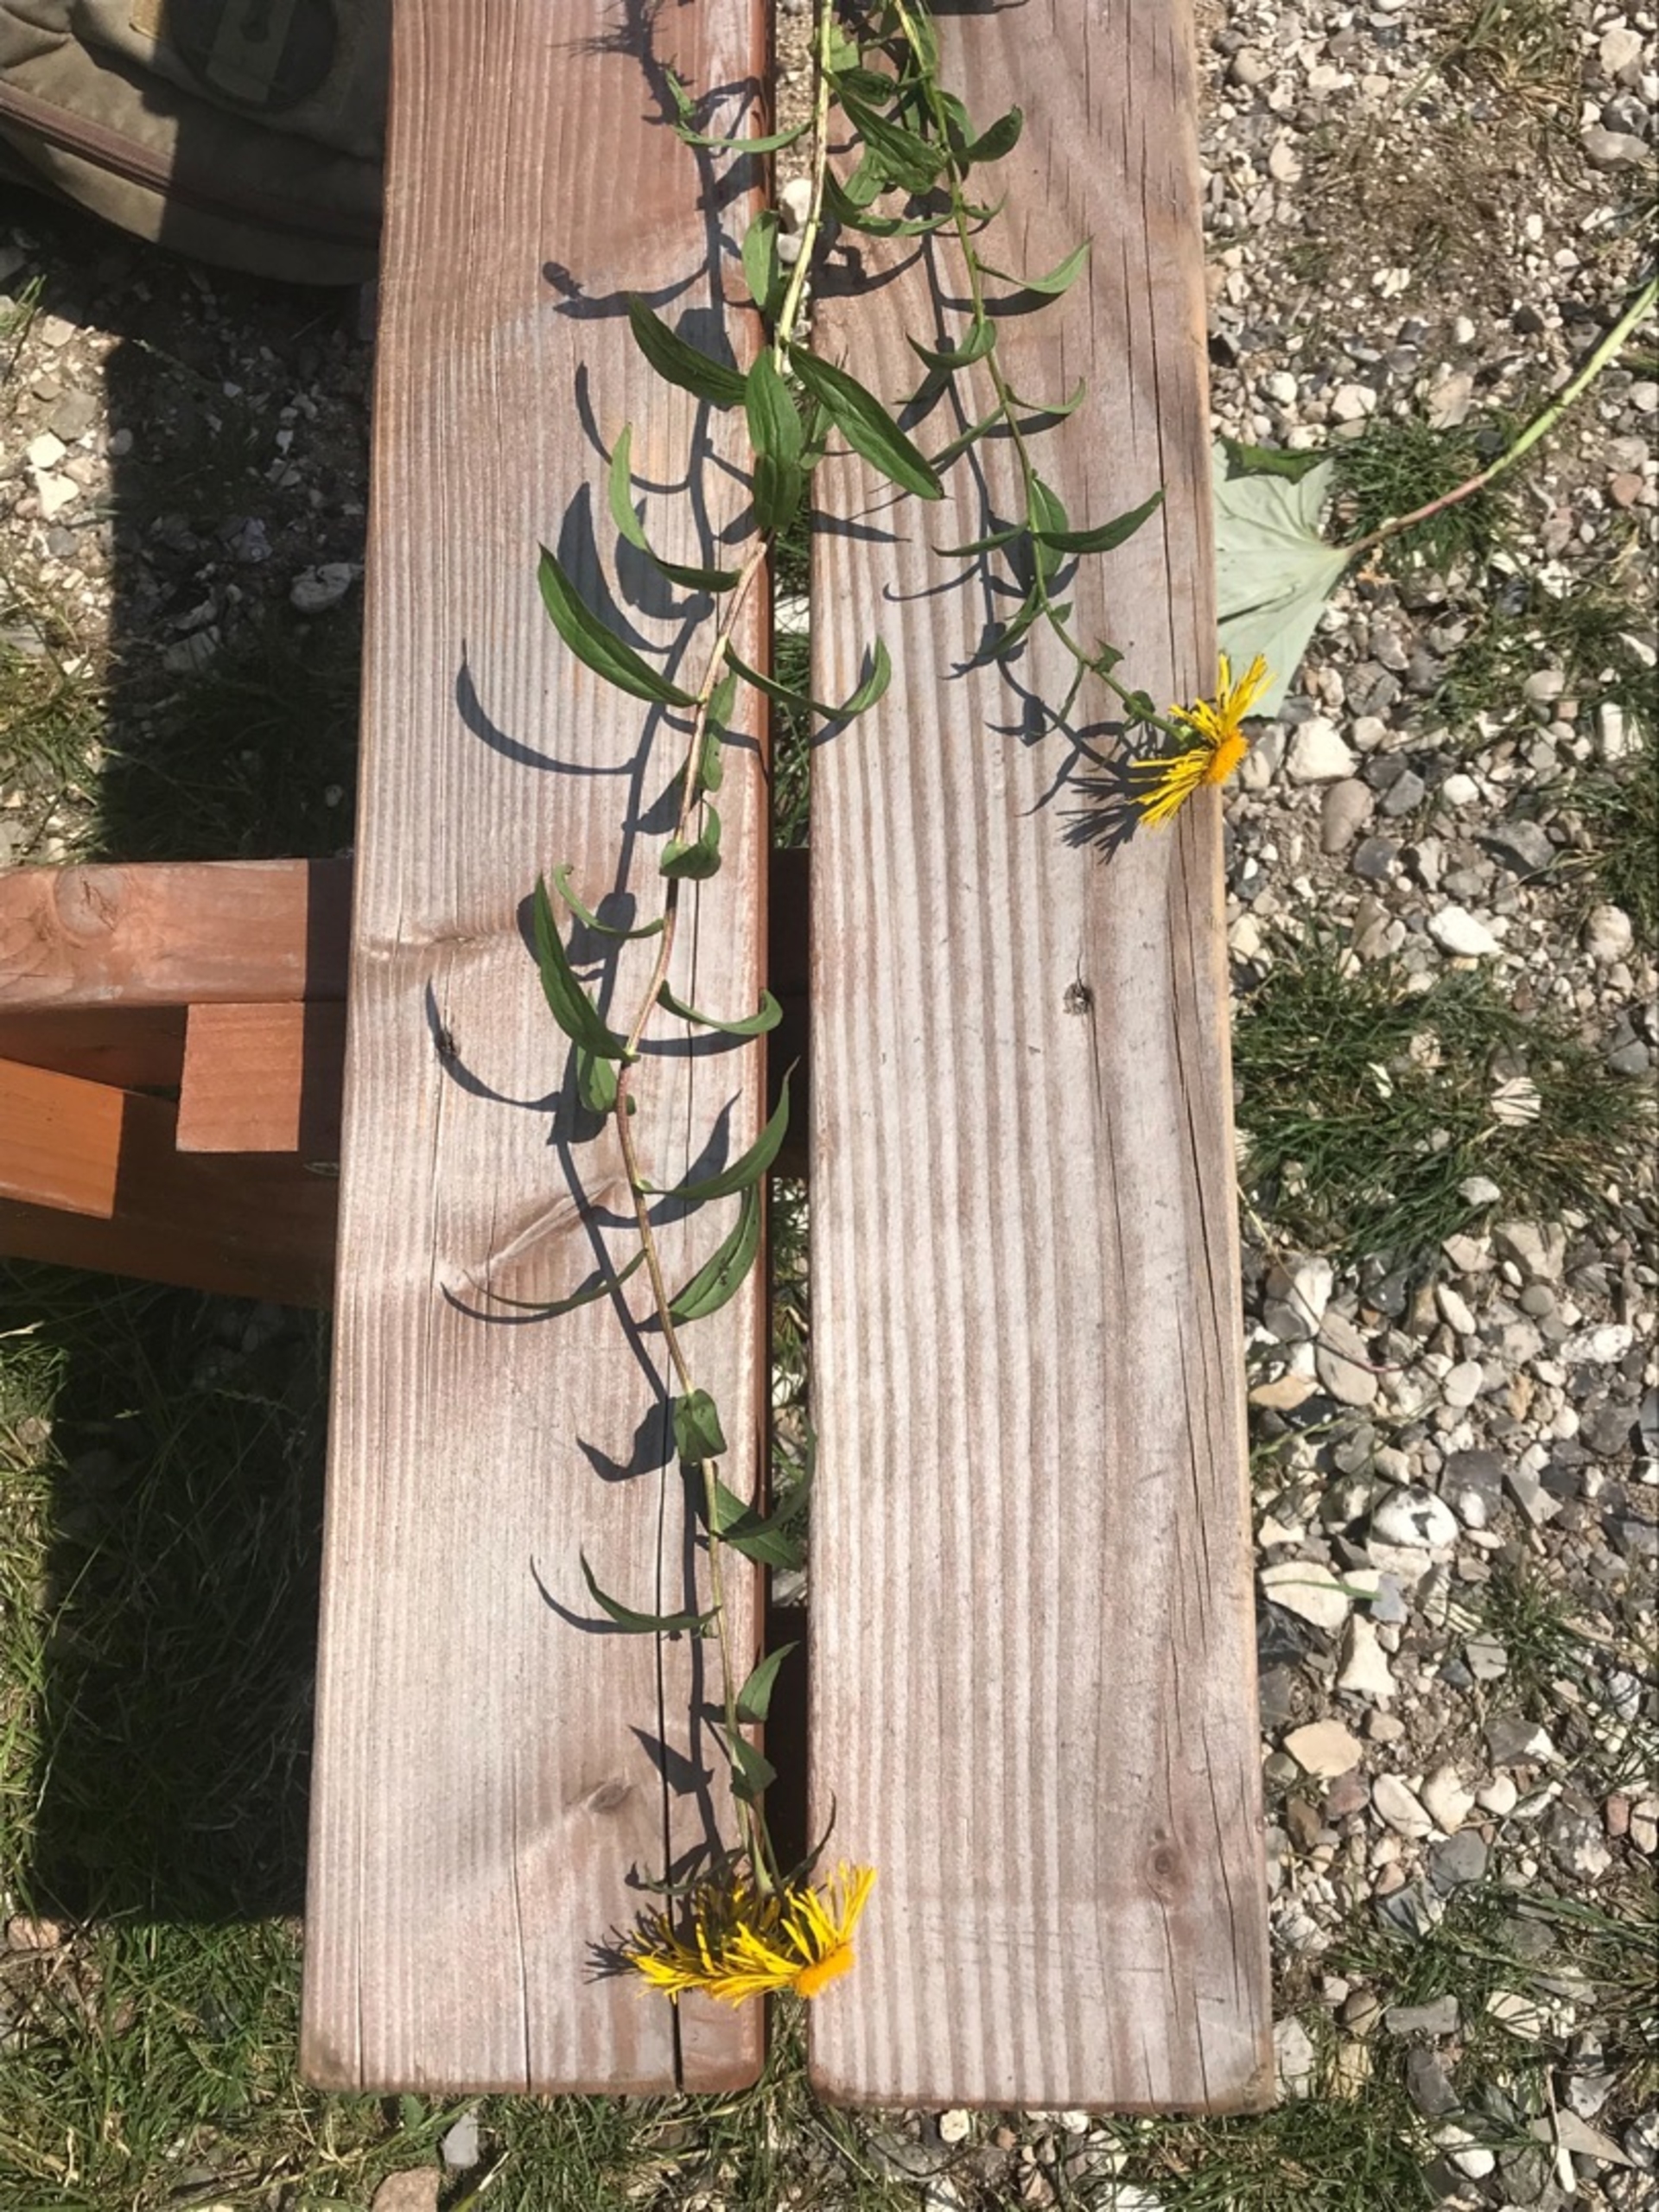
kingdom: Plantae
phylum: Tracheophyta
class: Magnoliopsida
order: Asterales
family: Asteraceae
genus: Pentanema
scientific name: Pentanema salicinum
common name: Pile-alant
